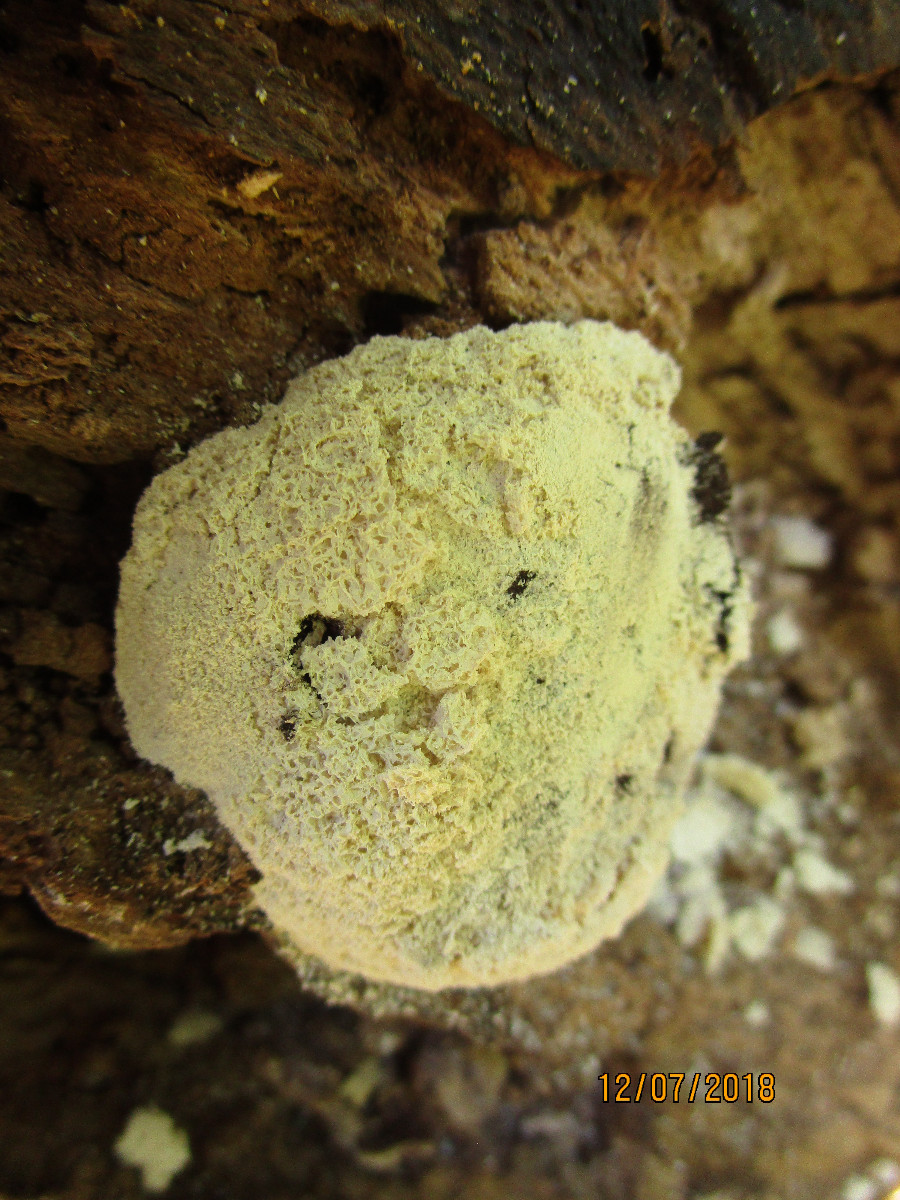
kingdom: Protozoa
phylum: Mycetozoa
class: Myxomycetes
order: Physarales
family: Physaraceae
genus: Fuligo
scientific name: Fuligo septica
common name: gul troldsmør
